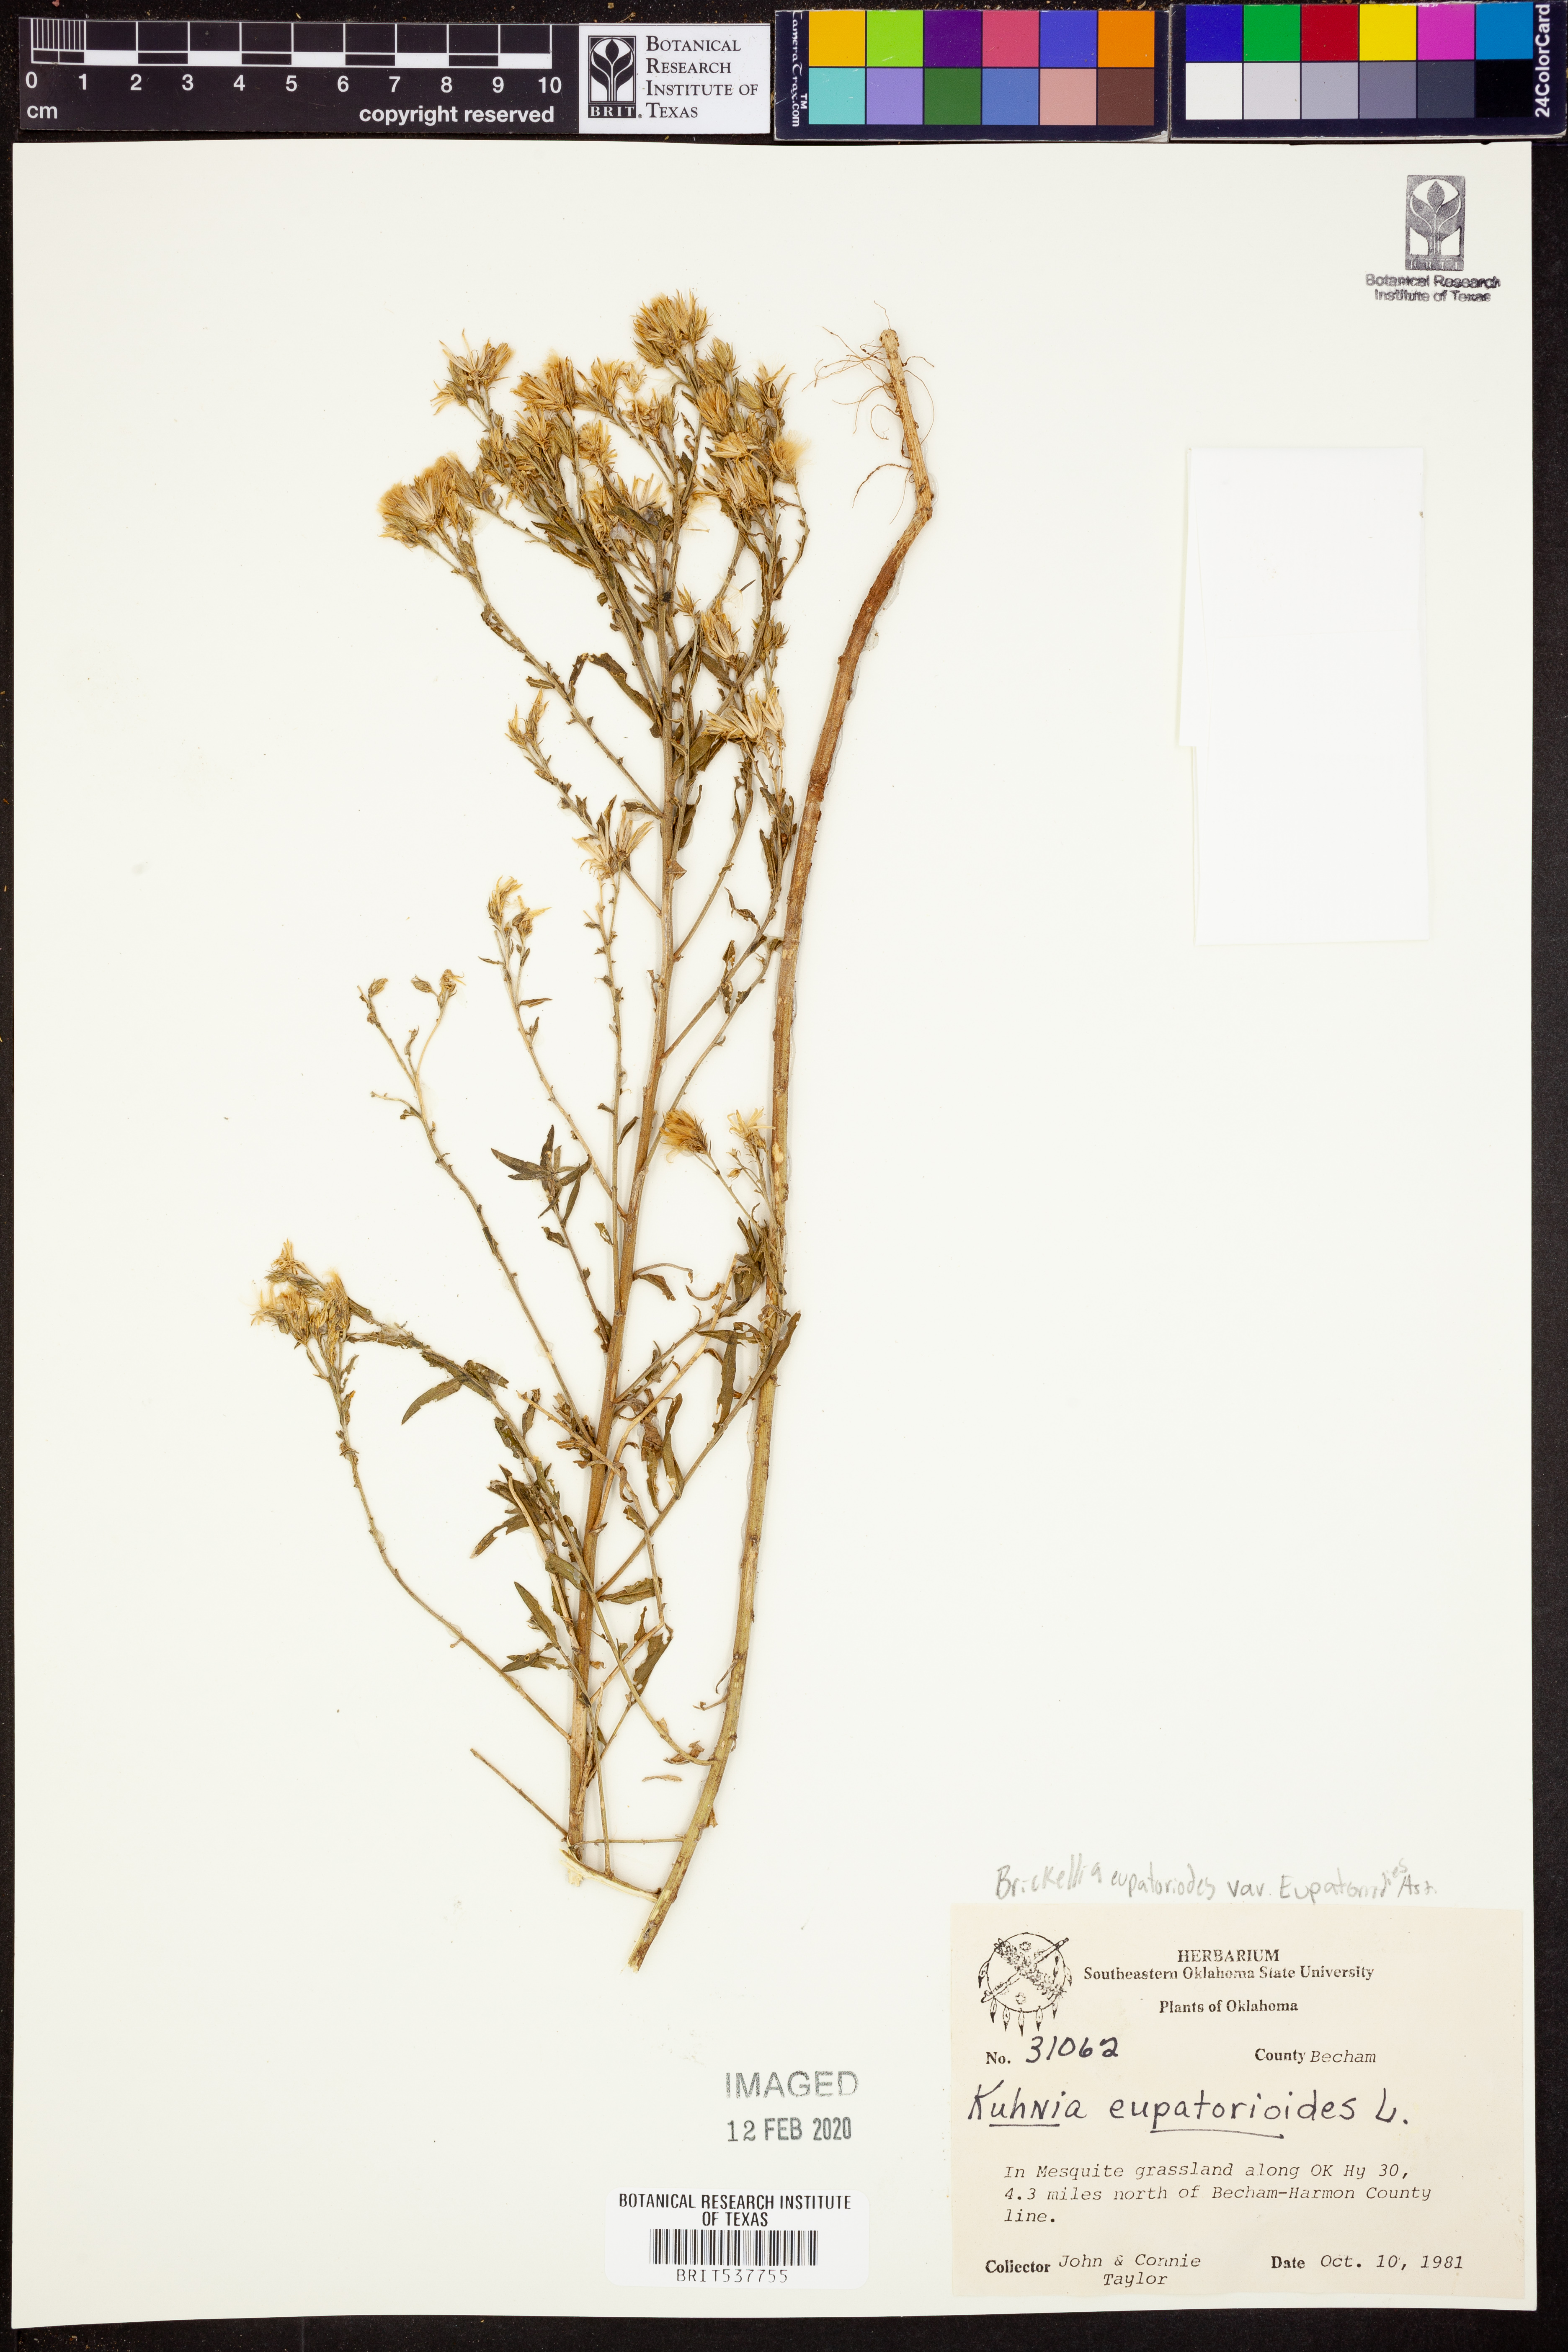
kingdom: Plantae
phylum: Tracheophyta
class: Magnoliopsida
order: Asterales
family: Asteraceae
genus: Brickellia
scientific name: Brickellia eupatorioides
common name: False boneset
